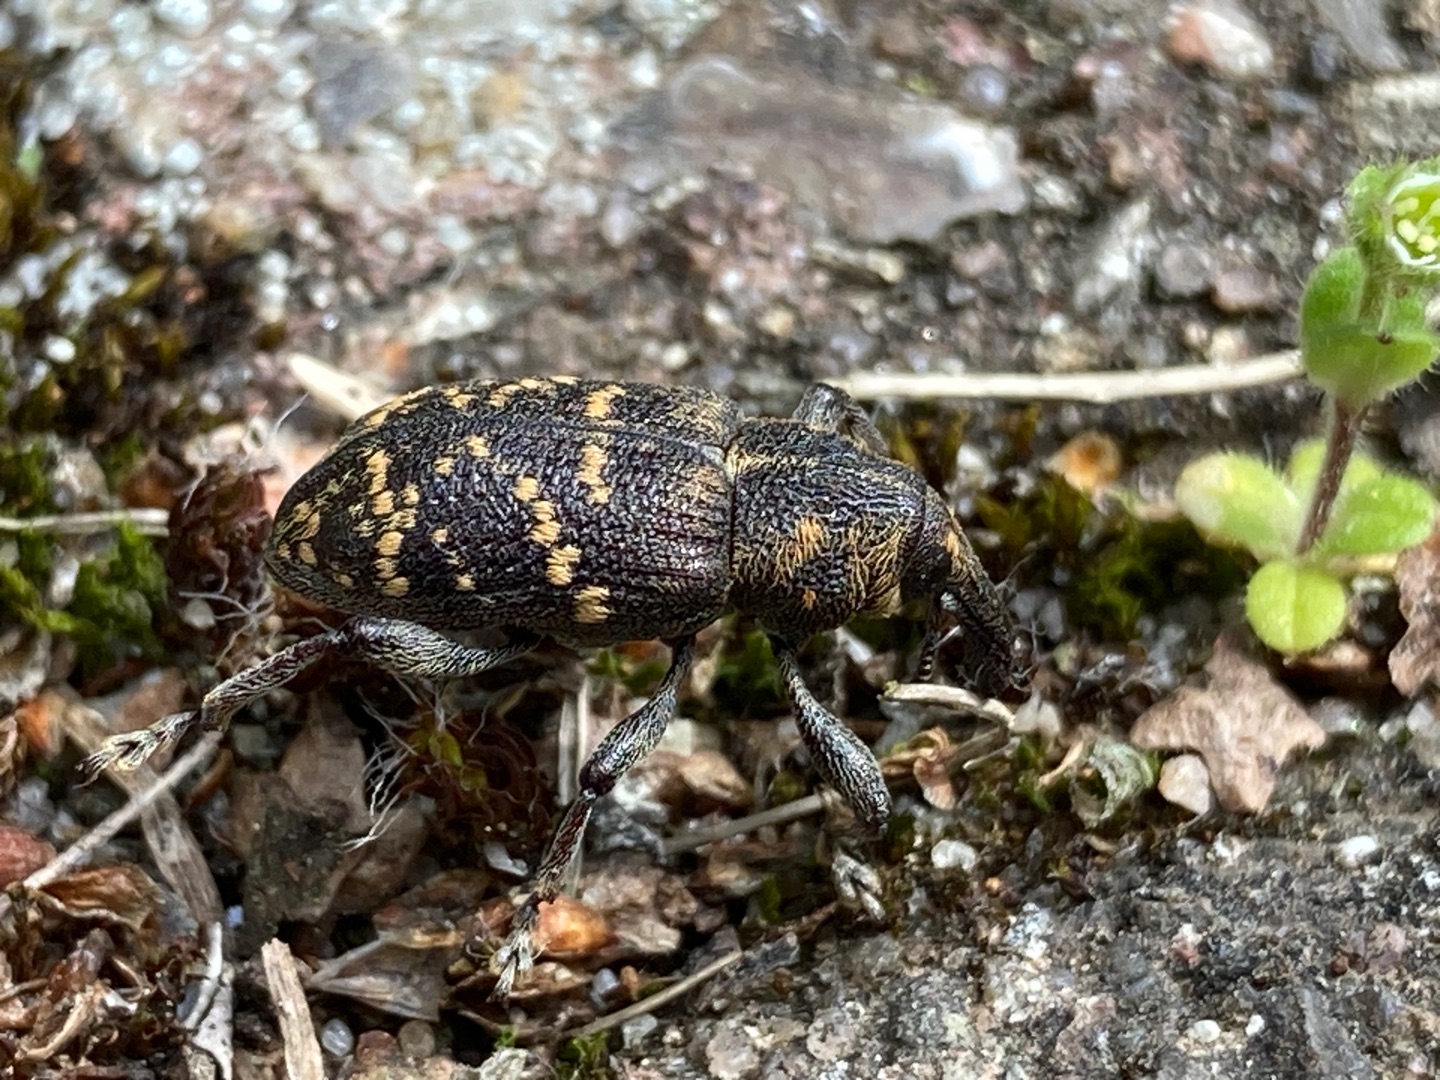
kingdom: Animalia
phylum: Arthropoda
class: Insecta
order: Coleoptera
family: Curculionidae
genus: Hylobius
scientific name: Hylobius abietis
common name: Stor nåletræsnudebille
